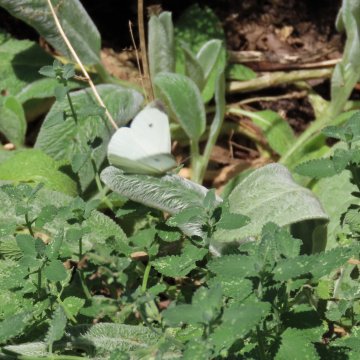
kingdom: Animalia
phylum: Arthropoda
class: Insecta
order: Lepidoptera
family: Pieridae
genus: Pieris
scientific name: Pieris rapae
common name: Cabbage White
